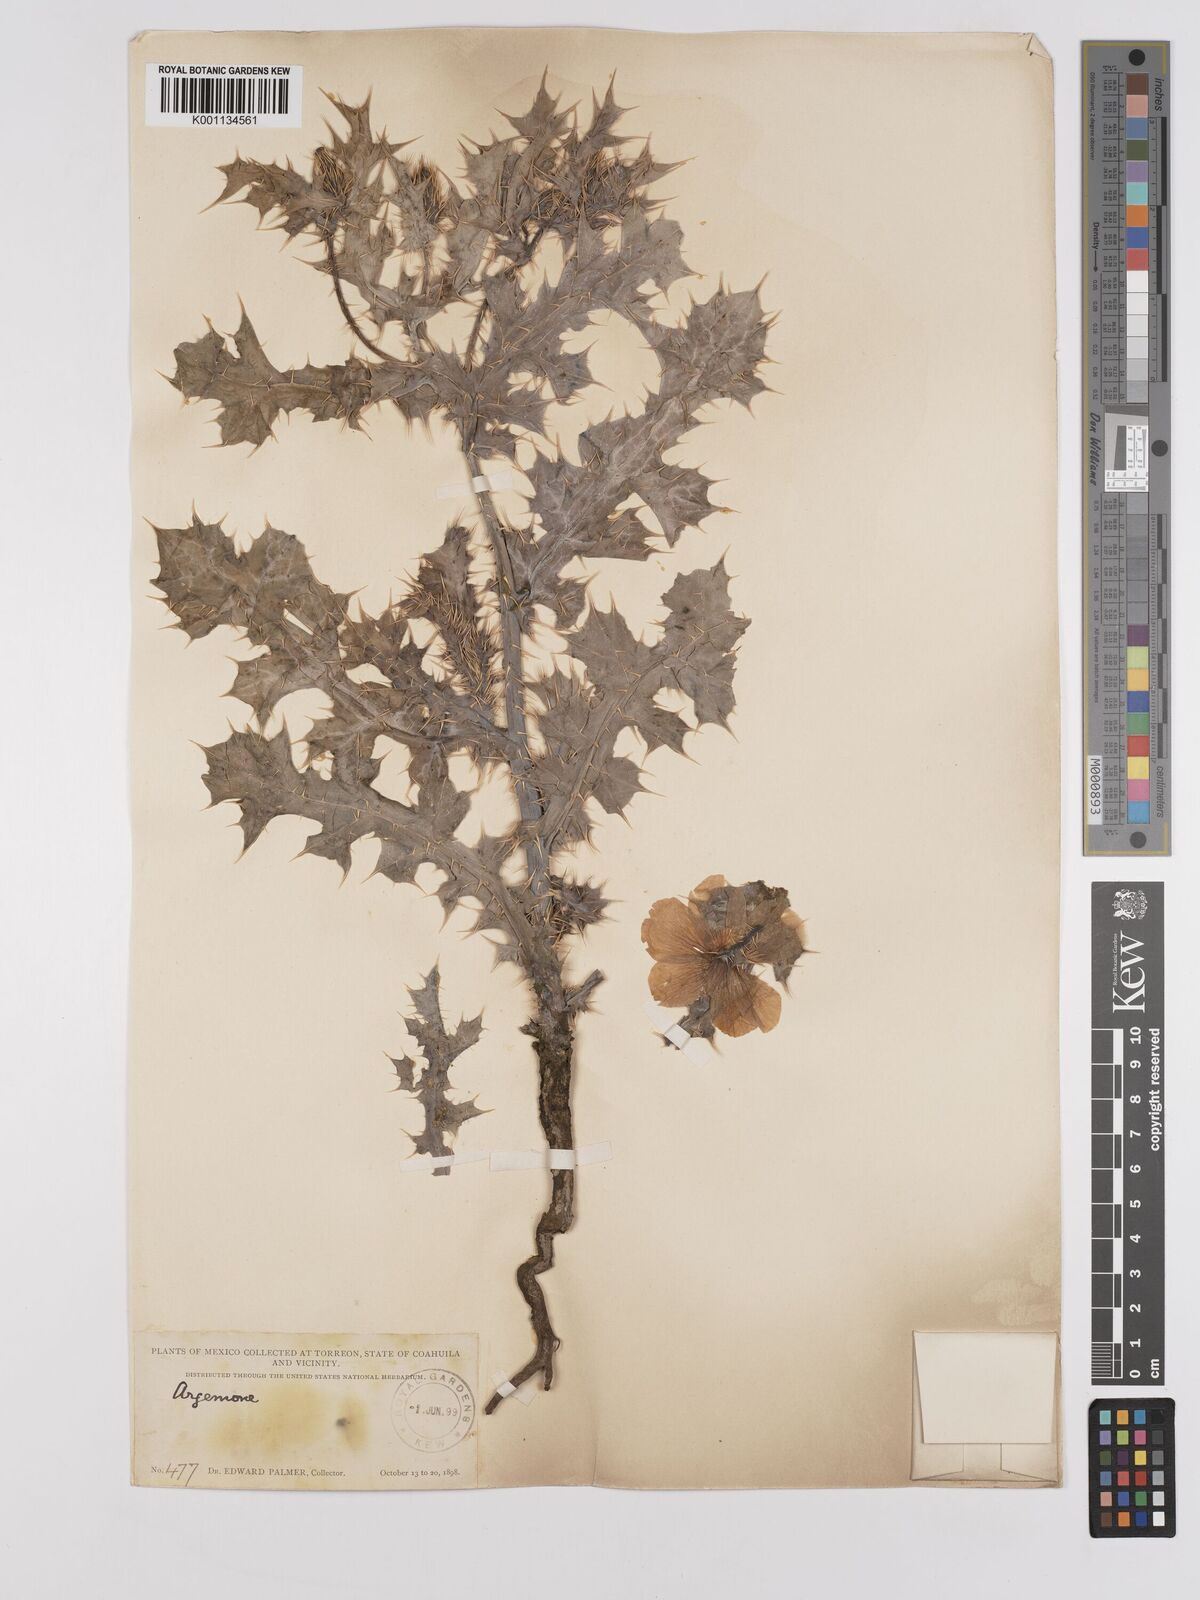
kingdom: Plantae
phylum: Tracheophyta
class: Magnoliopsida
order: Ranunculales
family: Papaveraceae
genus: Argemone
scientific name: Argemone mexicana
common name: Mexican poppy
